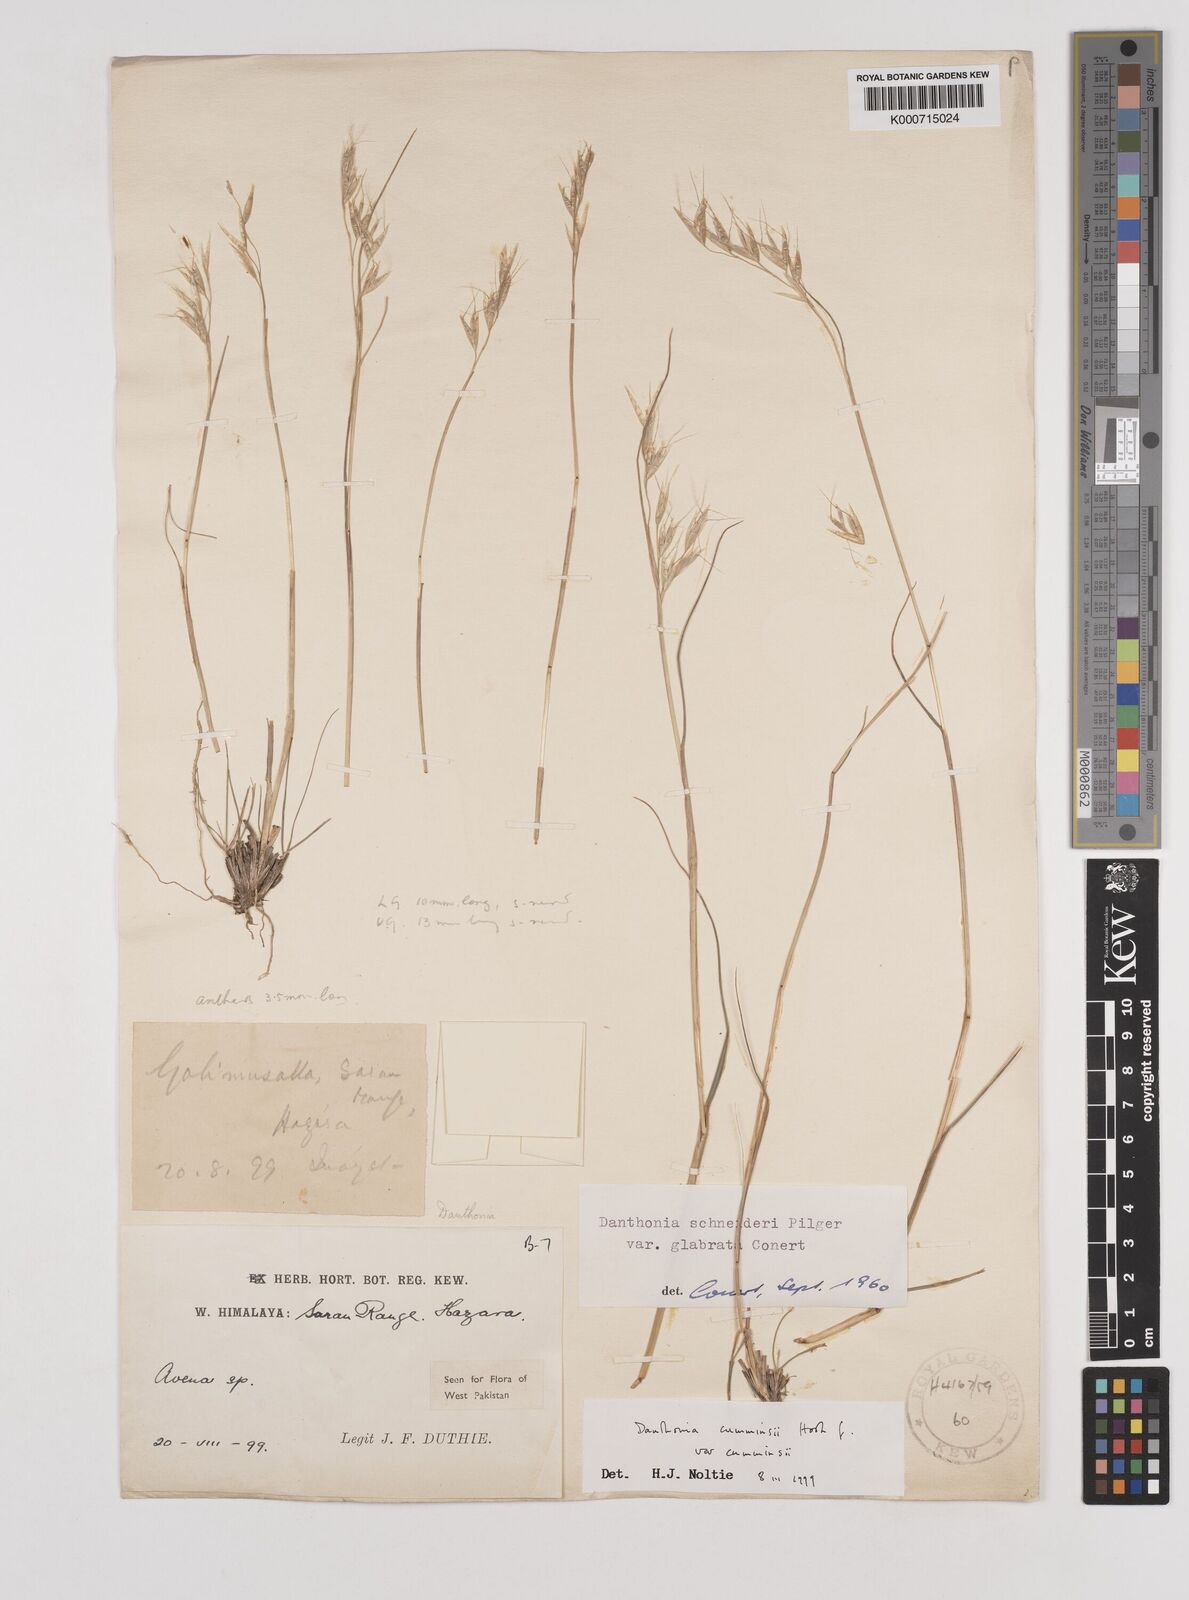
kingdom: Plantae
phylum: Tracheophyta
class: Liliopsida
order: Poales
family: Poaceae
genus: Rytidosperma
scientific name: Rytidosperma
